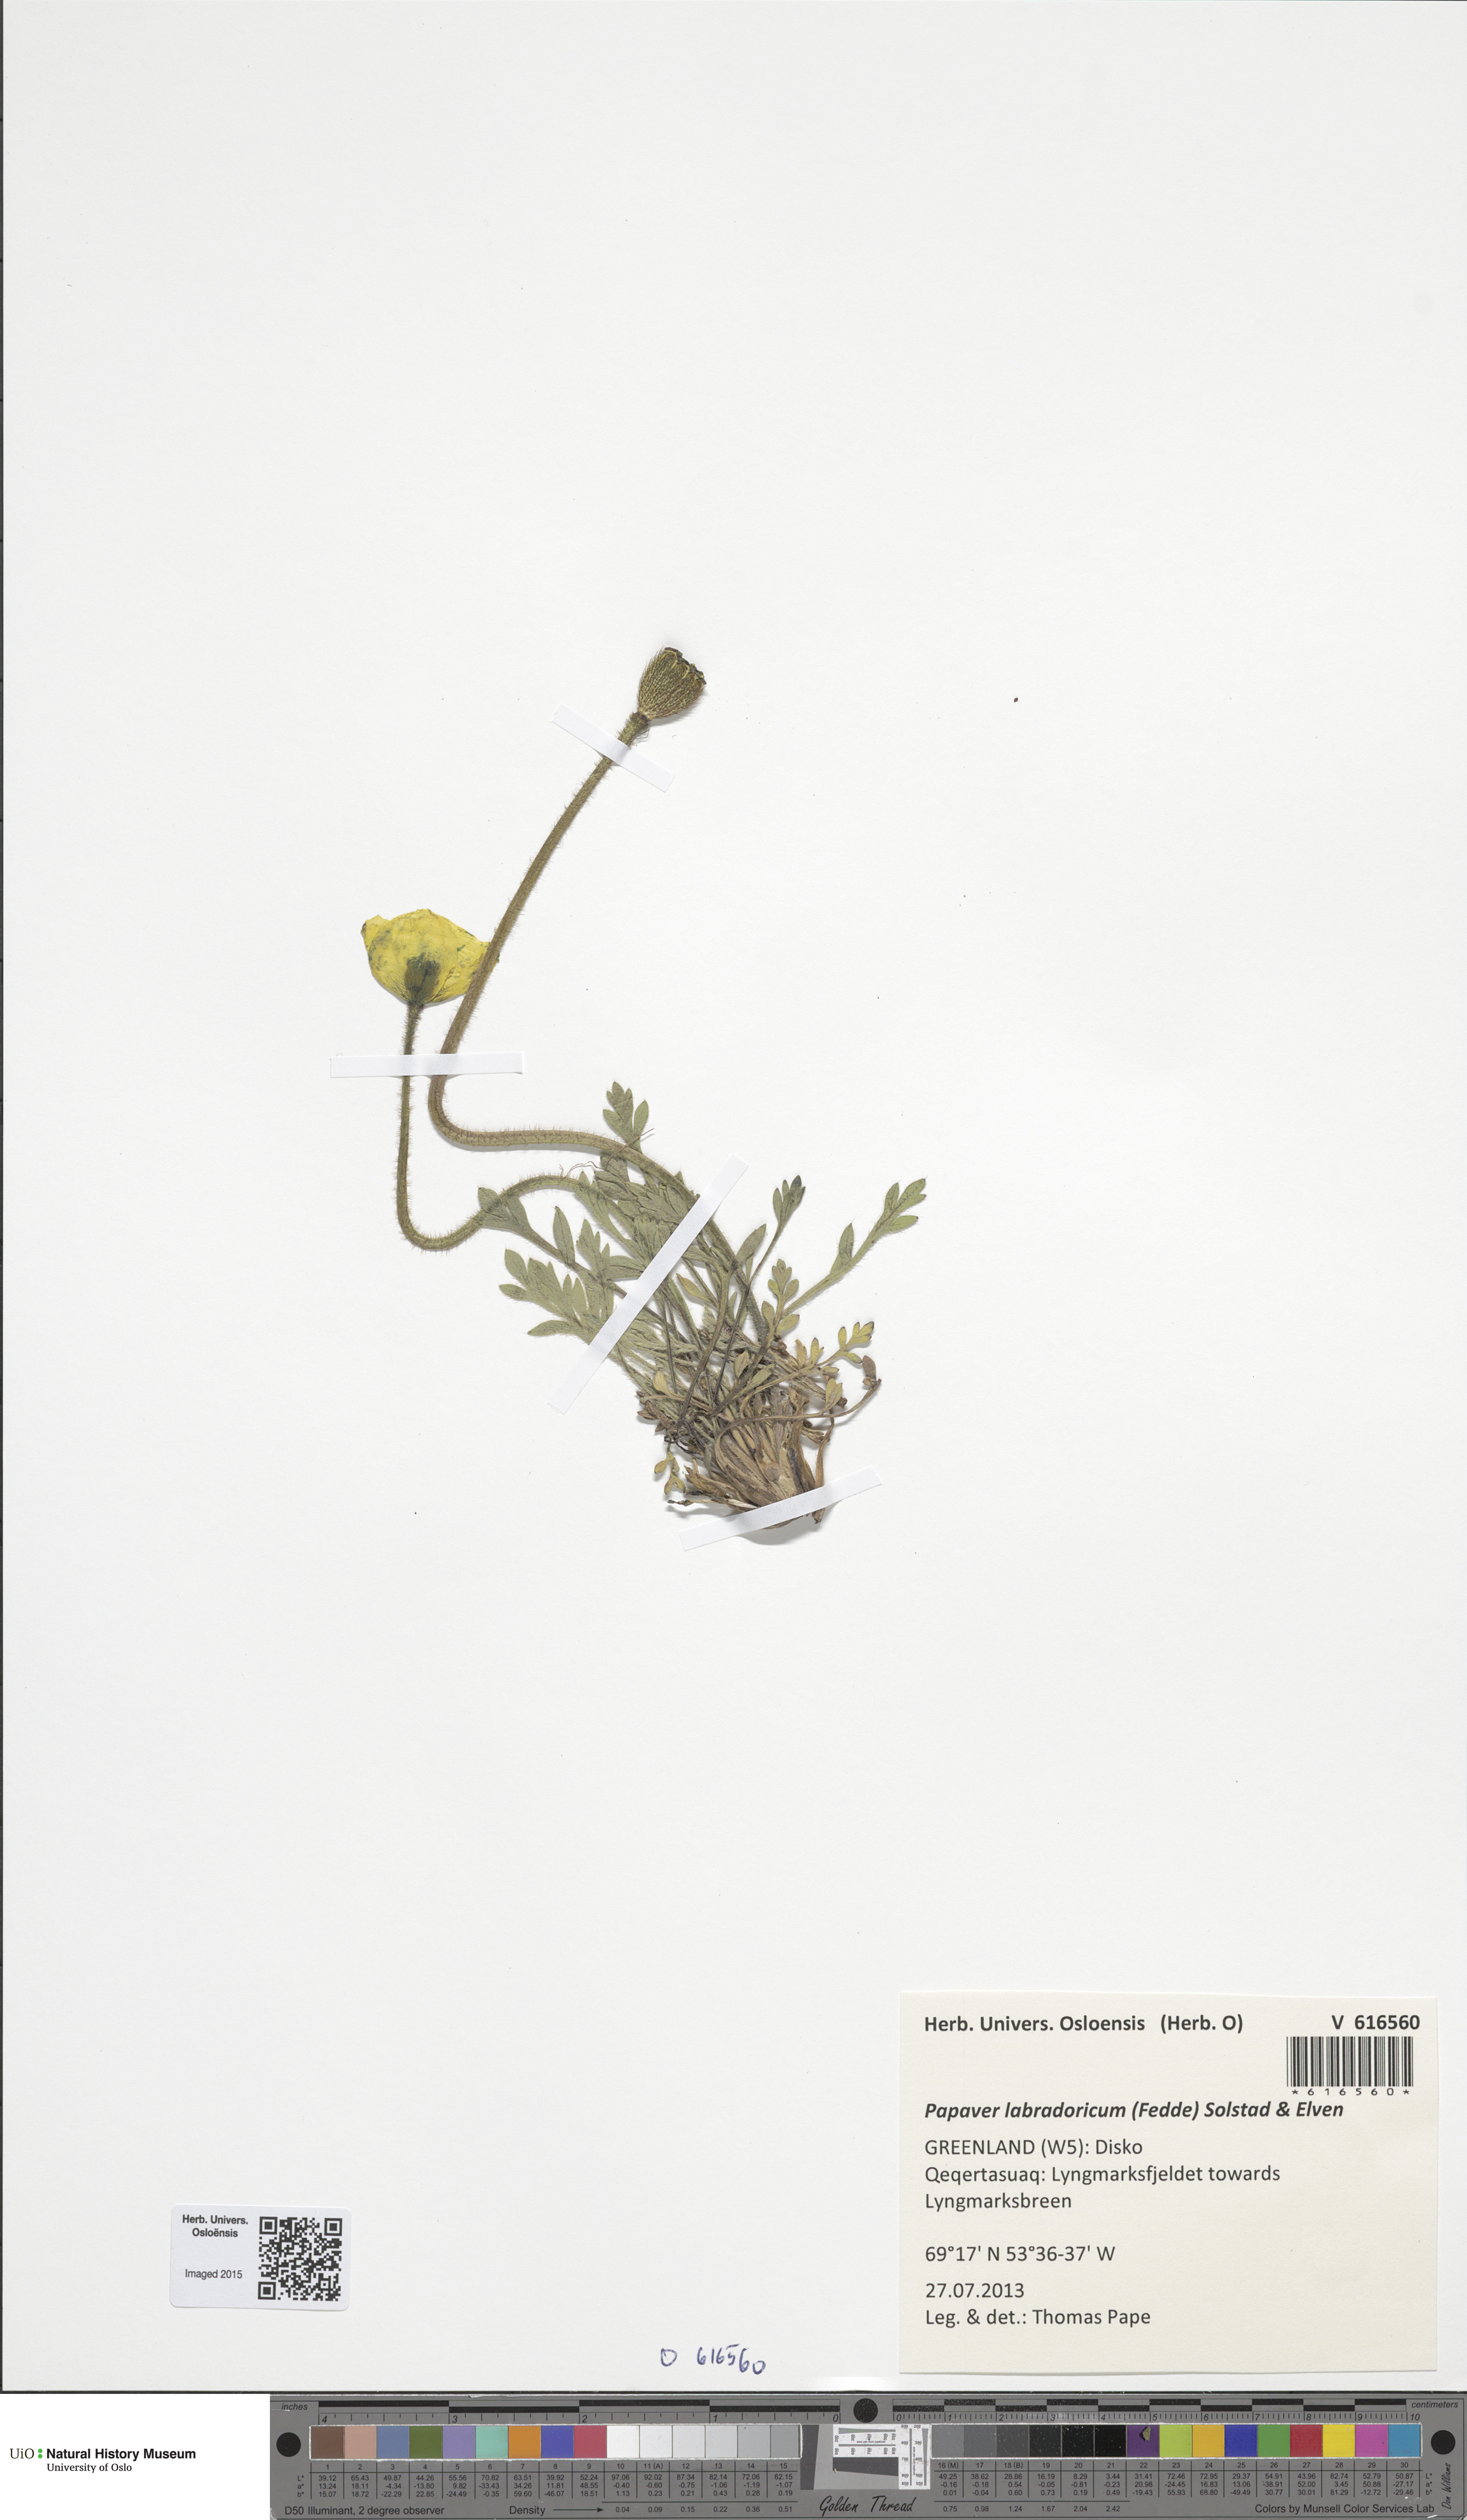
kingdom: Plantae
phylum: Tracheophyta
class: Magnoliopsida
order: Ranunculales
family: Papaveraceae
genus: Papaver
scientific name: Papaver radicatum
